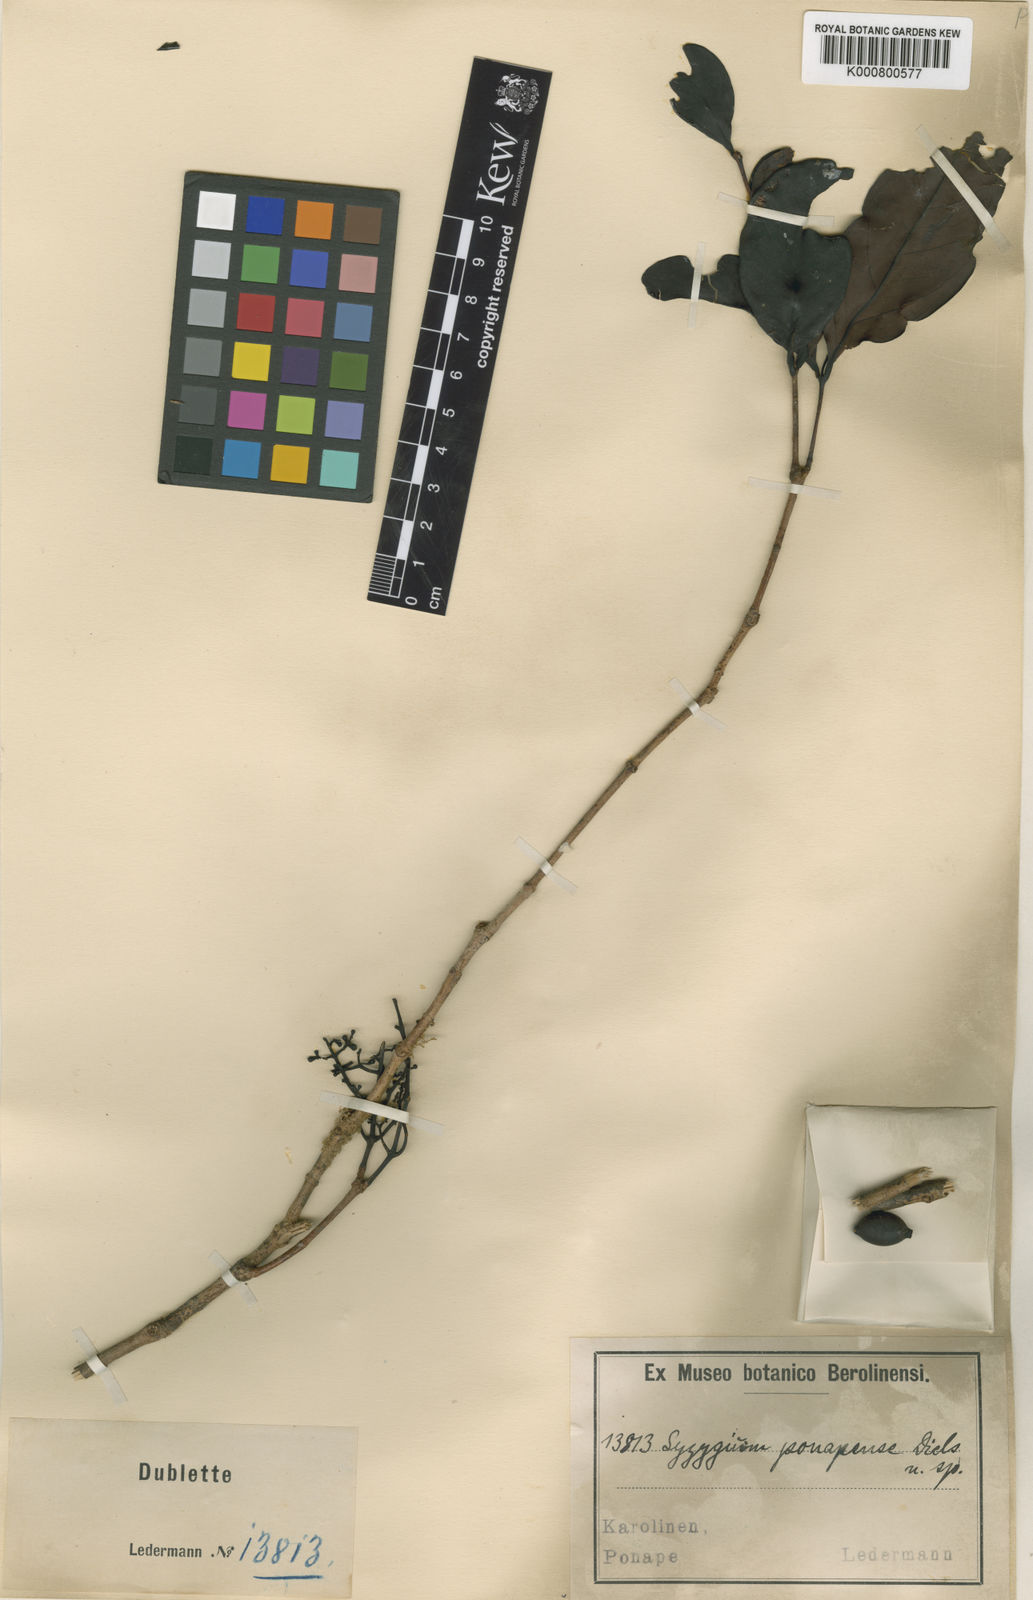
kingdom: Plantae
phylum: Tracheophyta
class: Magnoliopsida
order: Myrtales
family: Myrtaceae
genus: Syzygium
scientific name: Syzygium carolinense
